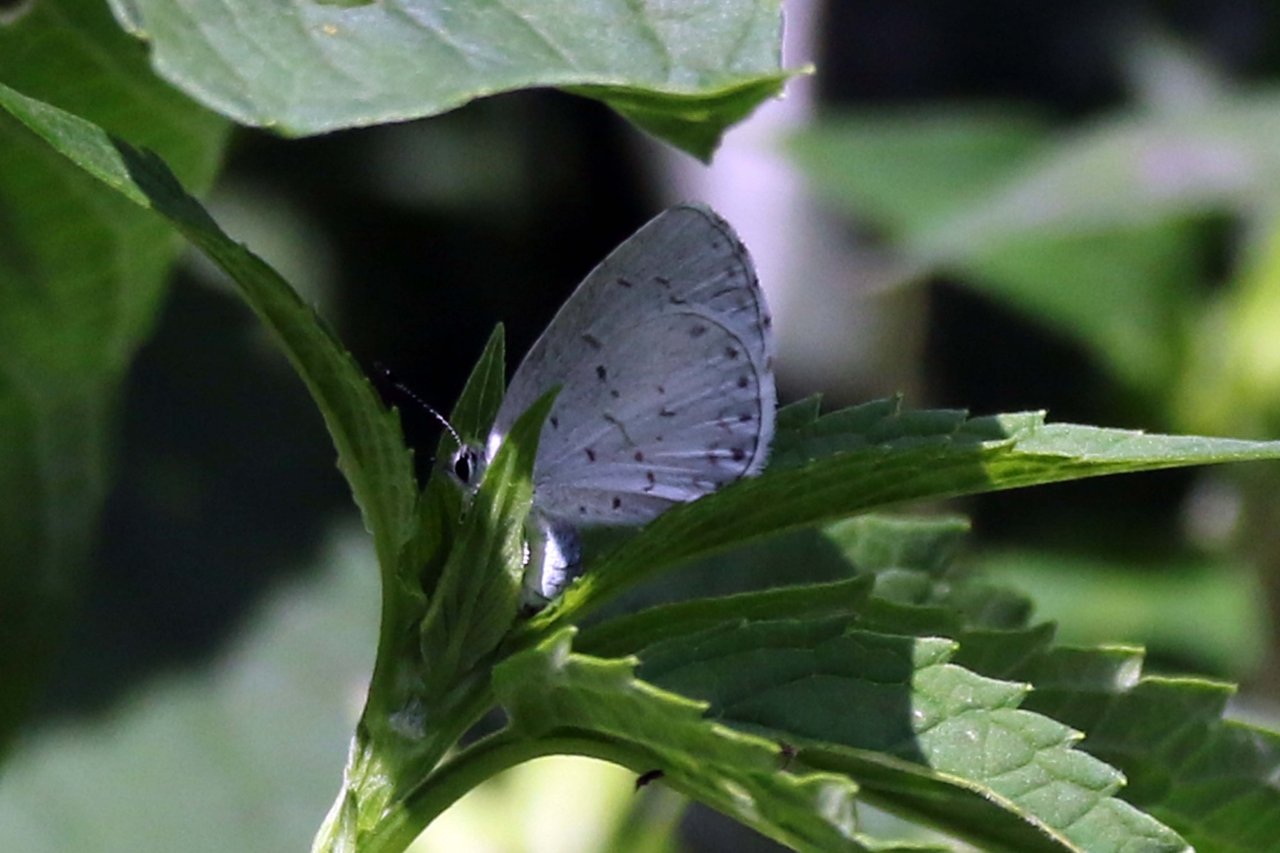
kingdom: Animalia
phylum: Arthropoda
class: Insecta
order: Lepidoptera
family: Lycaenidae
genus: Celastrina
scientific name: Celastrina
